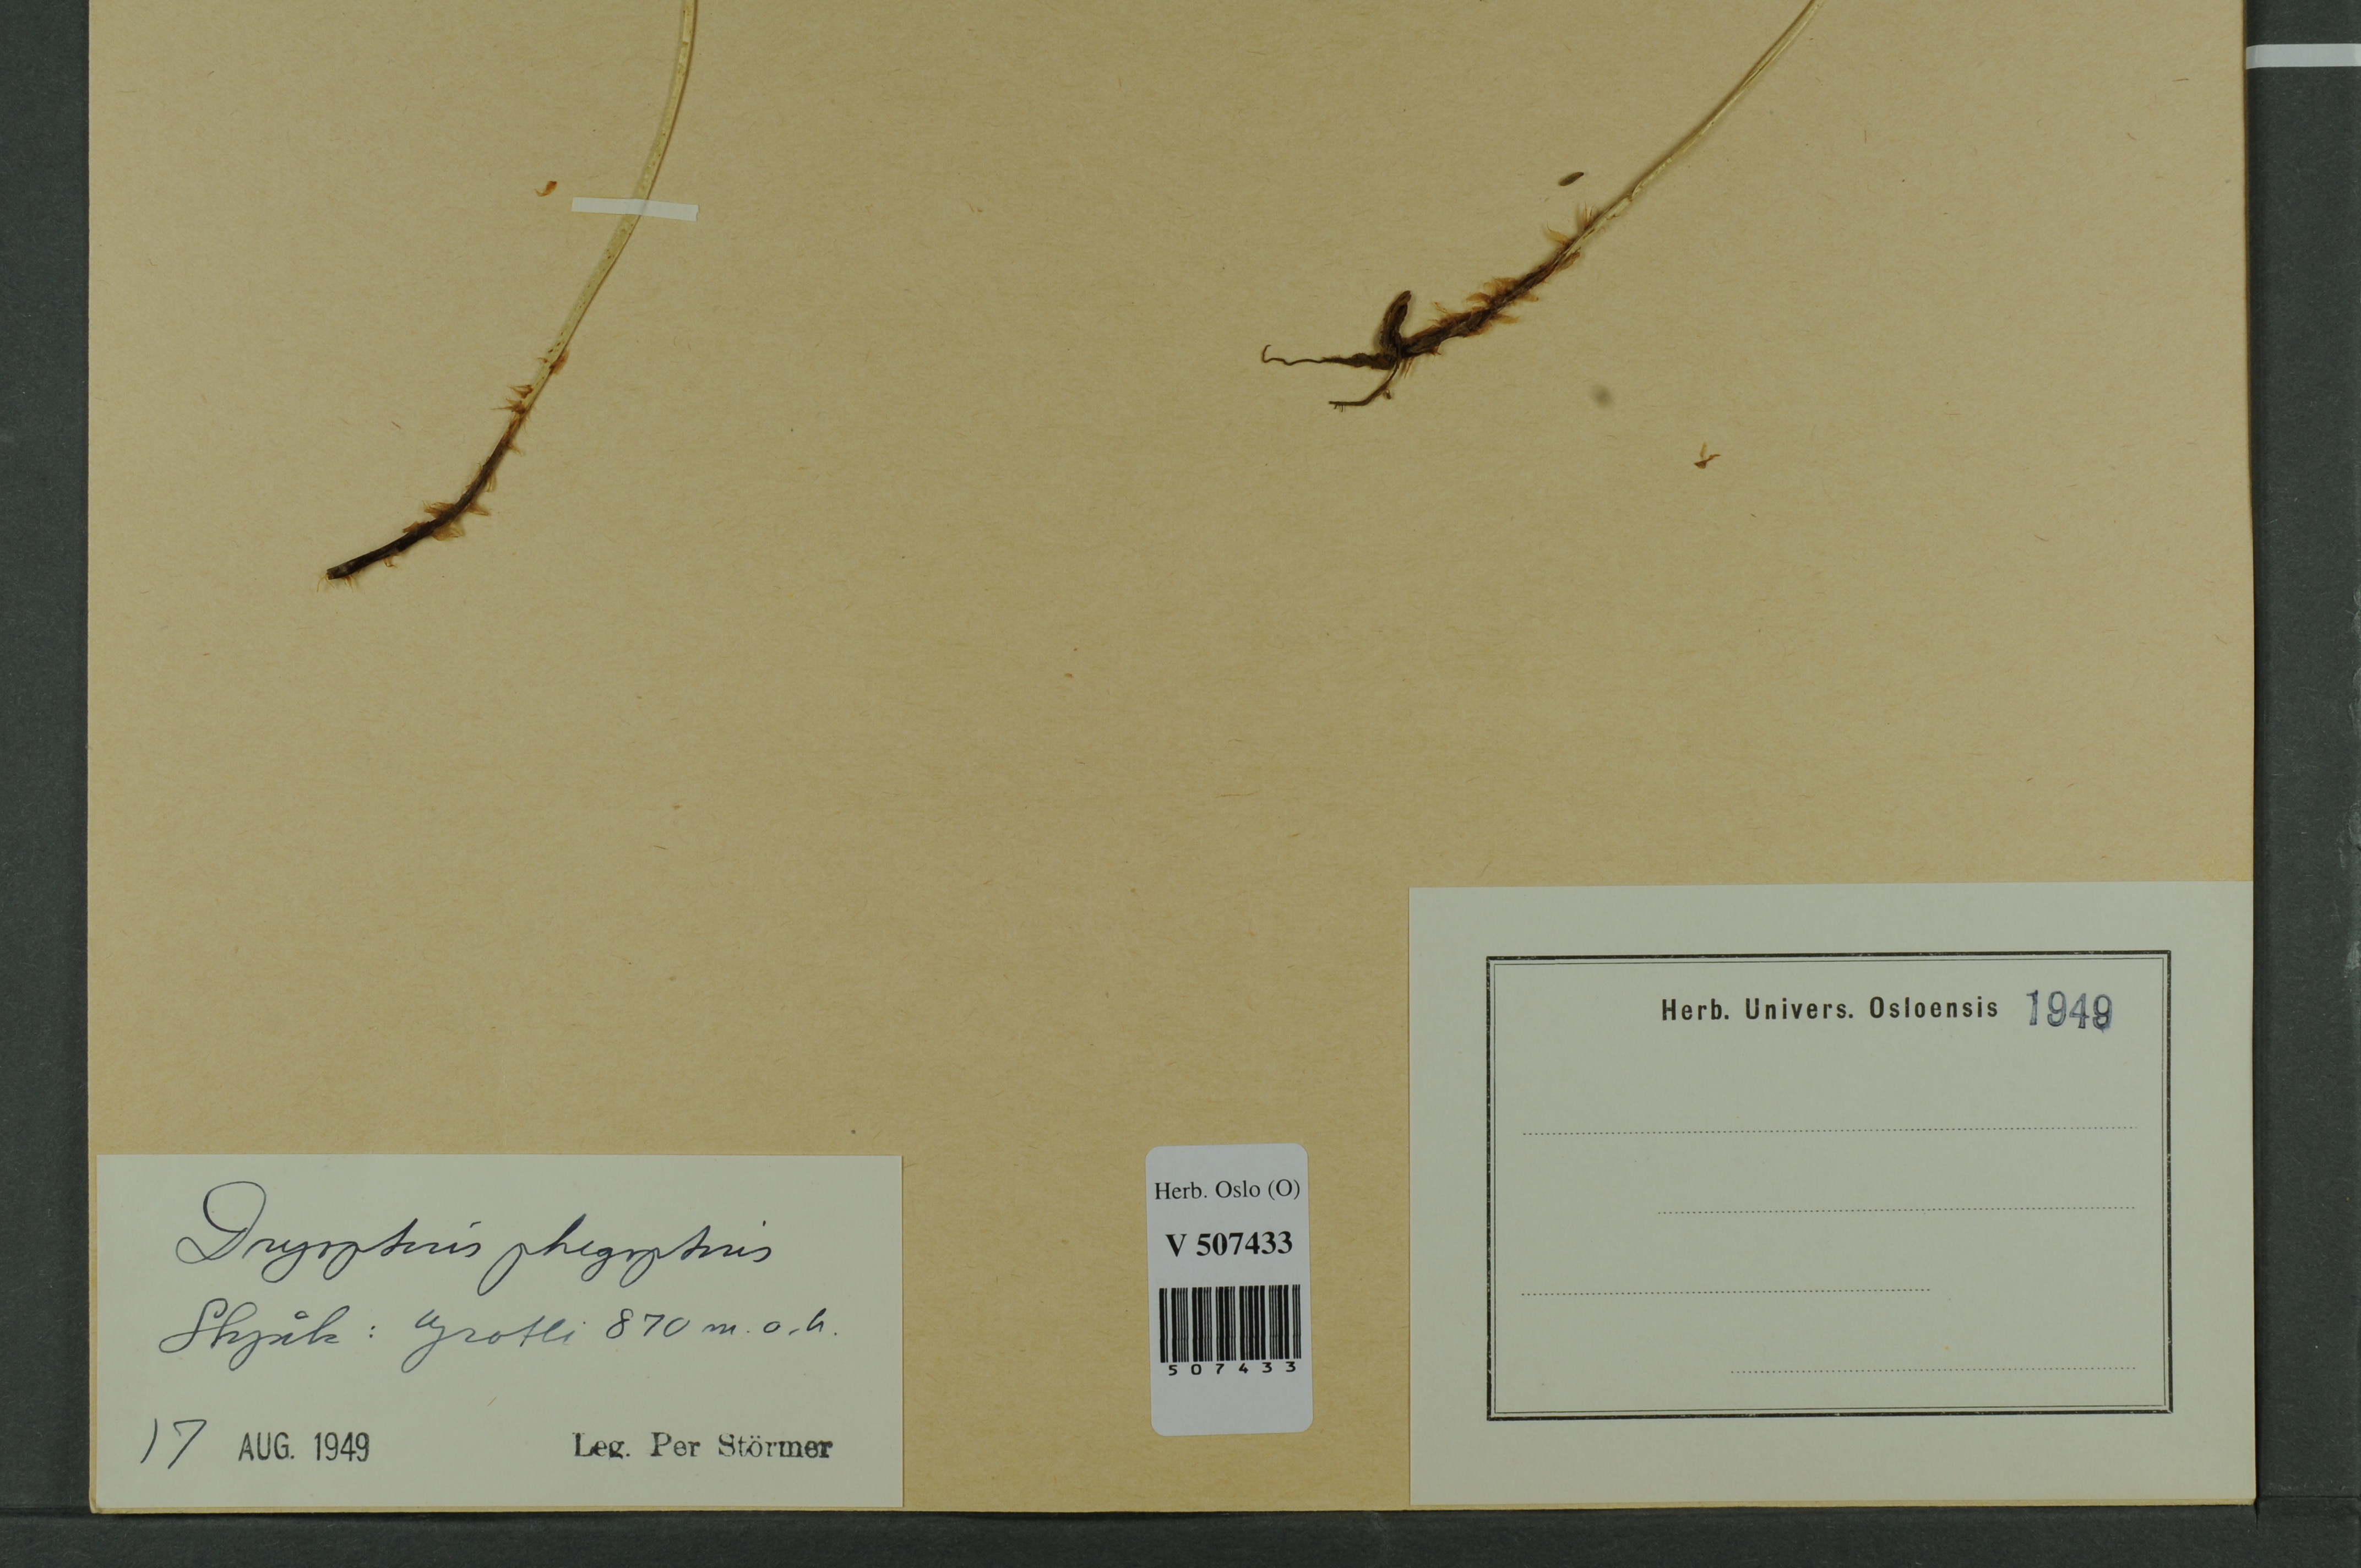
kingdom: Plantae
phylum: Tracheophyta
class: Polypodiopsida
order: Polypodiales
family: Thelypteridaceae
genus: Phegopteris
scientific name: Phegopteris connectilis
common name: Beech fern
